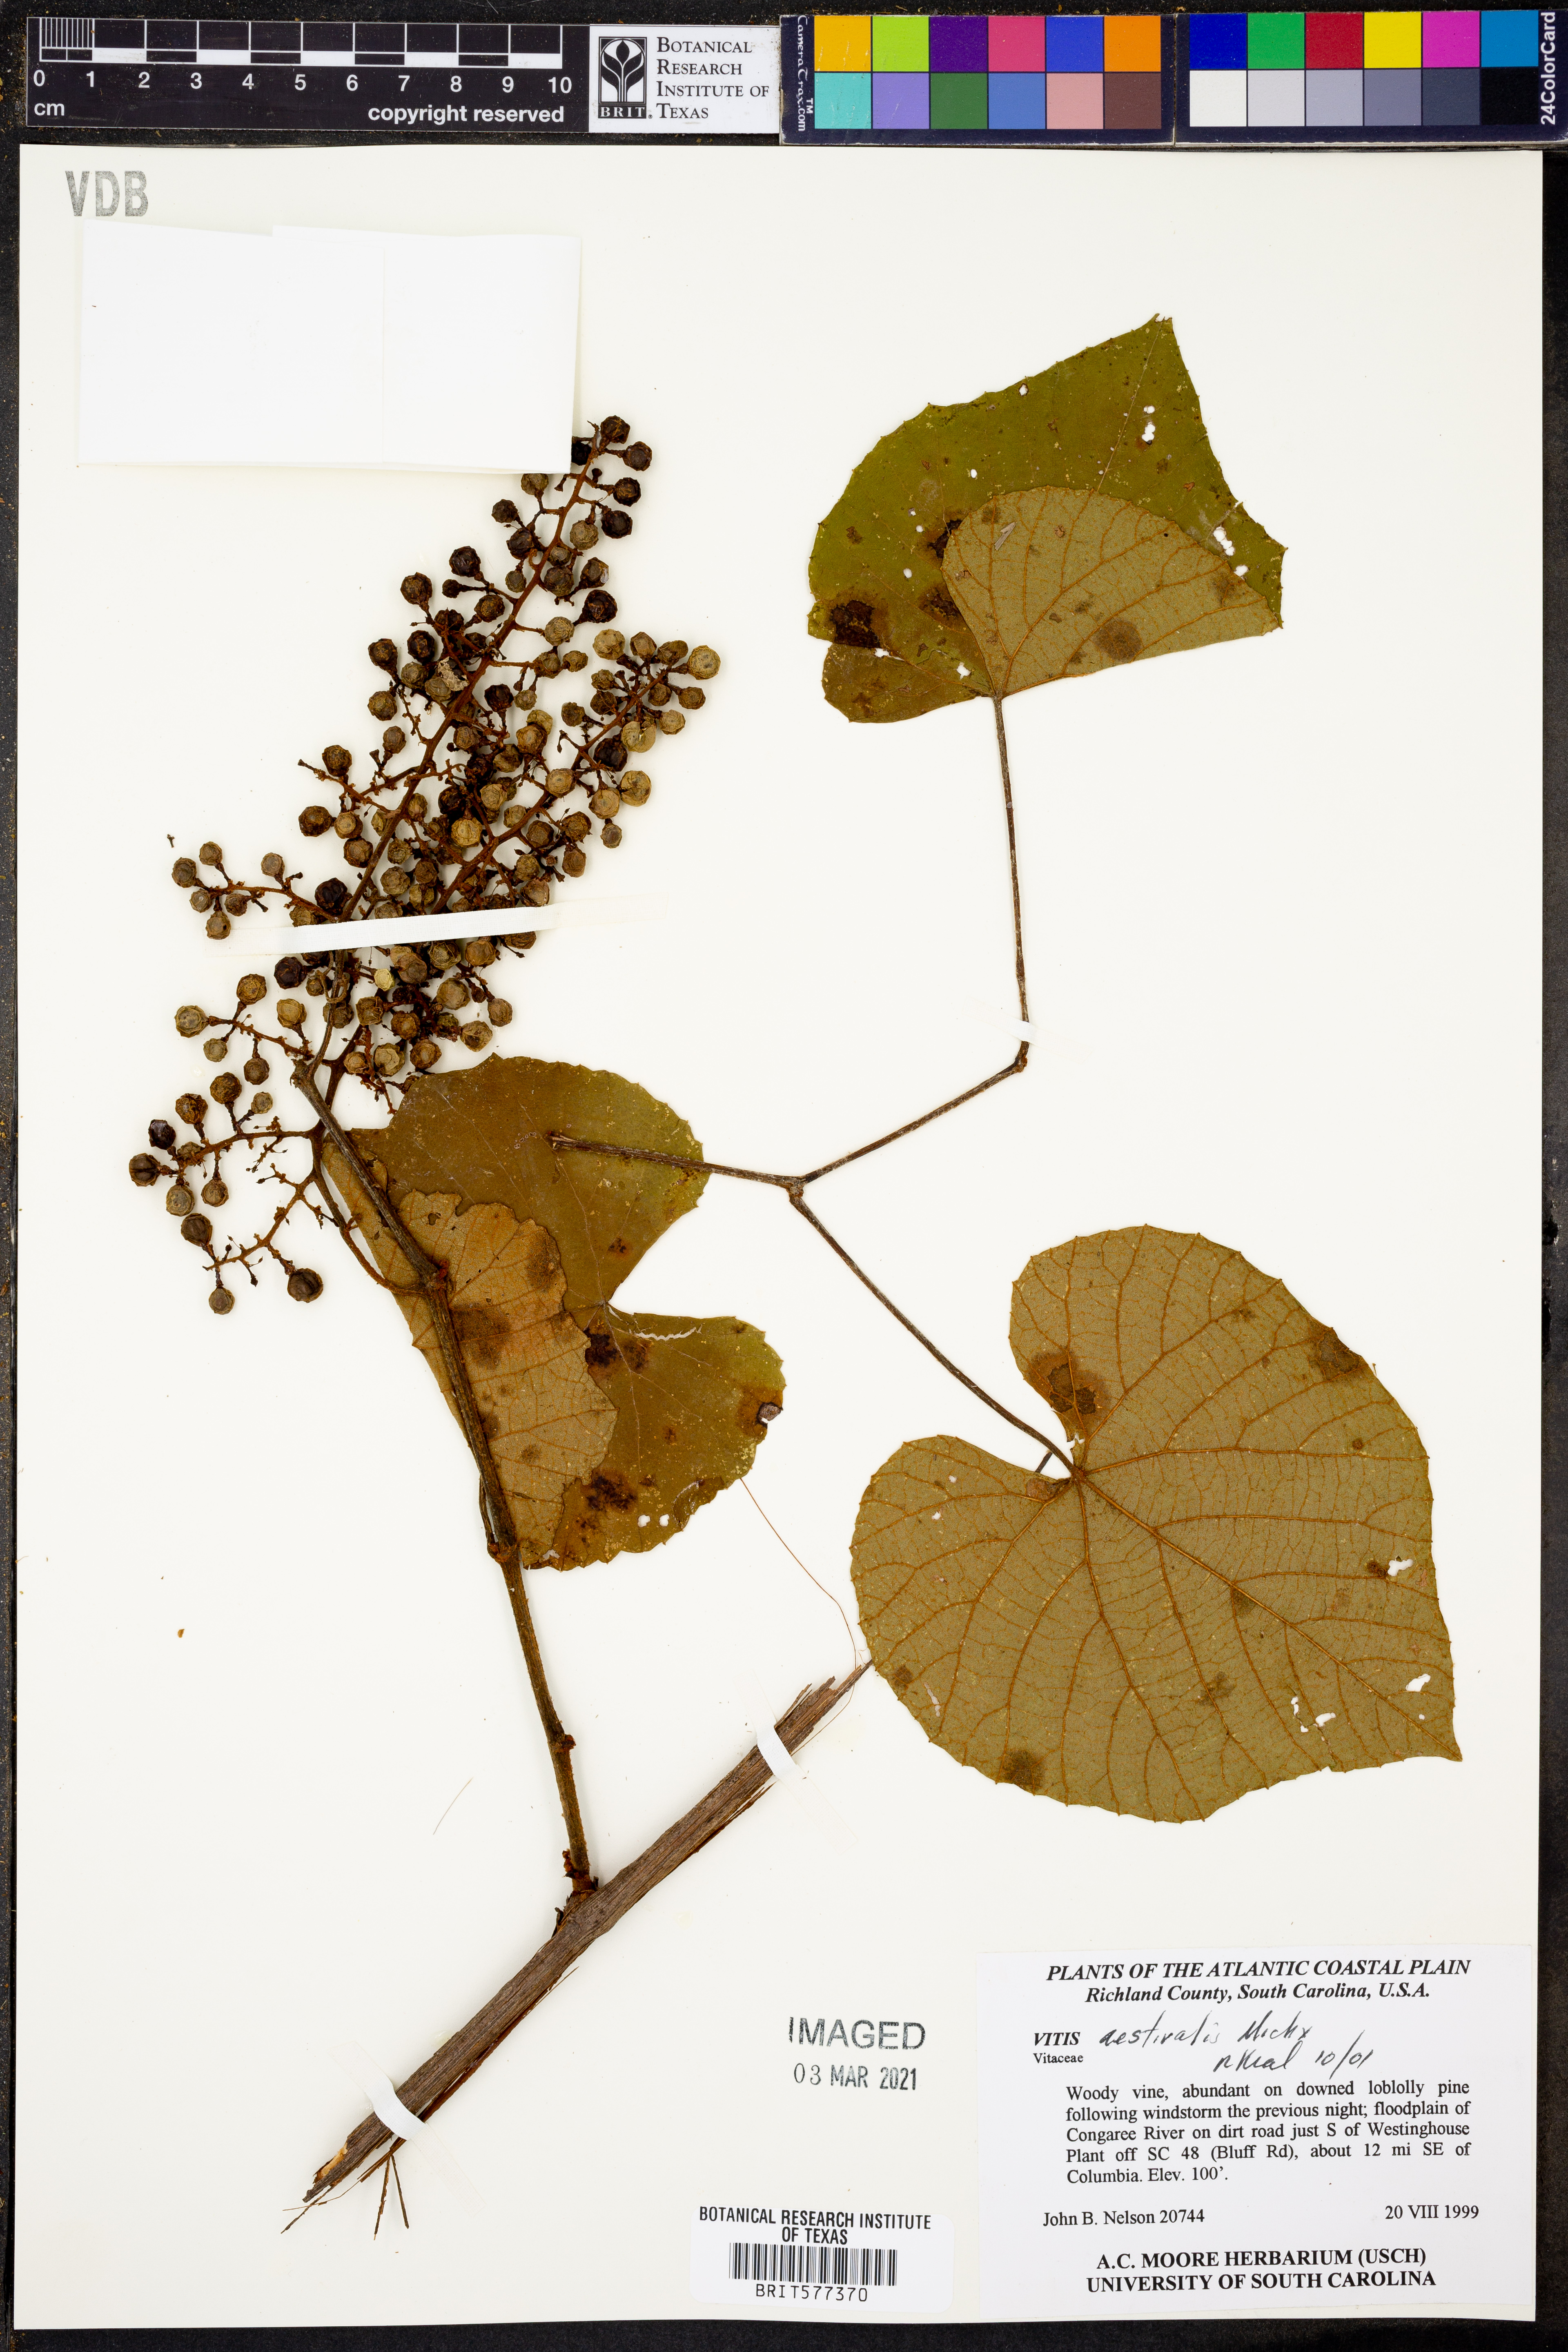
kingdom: Plantae
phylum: Tracheophyta
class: Magnoliopsida
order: Vitales
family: Vitaceae
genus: Vitis
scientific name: Vitis aestivalis
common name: Pigeon grape
